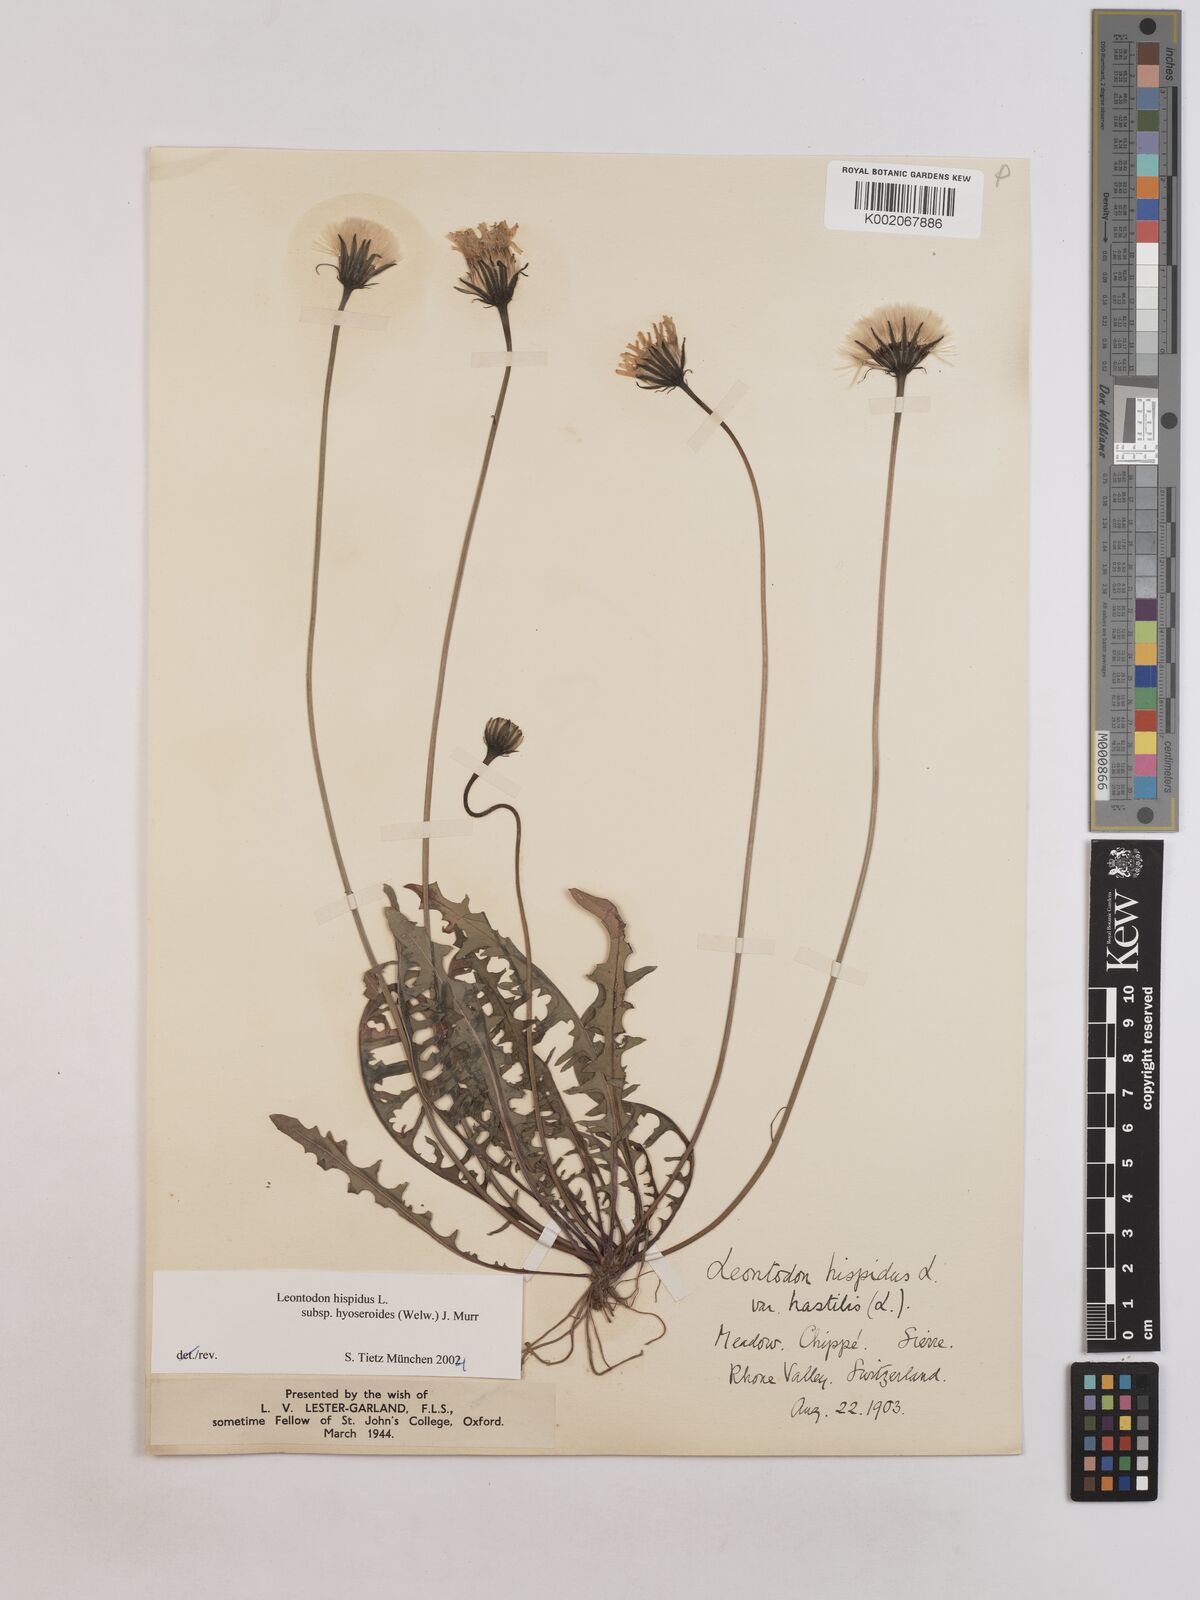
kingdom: Plantae
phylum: Tracheophyta
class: Magnoliopsida
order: Asterales
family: Asteraceae
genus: Leontodon
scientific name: Leontodon hispidus
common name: Rough hawkbit
